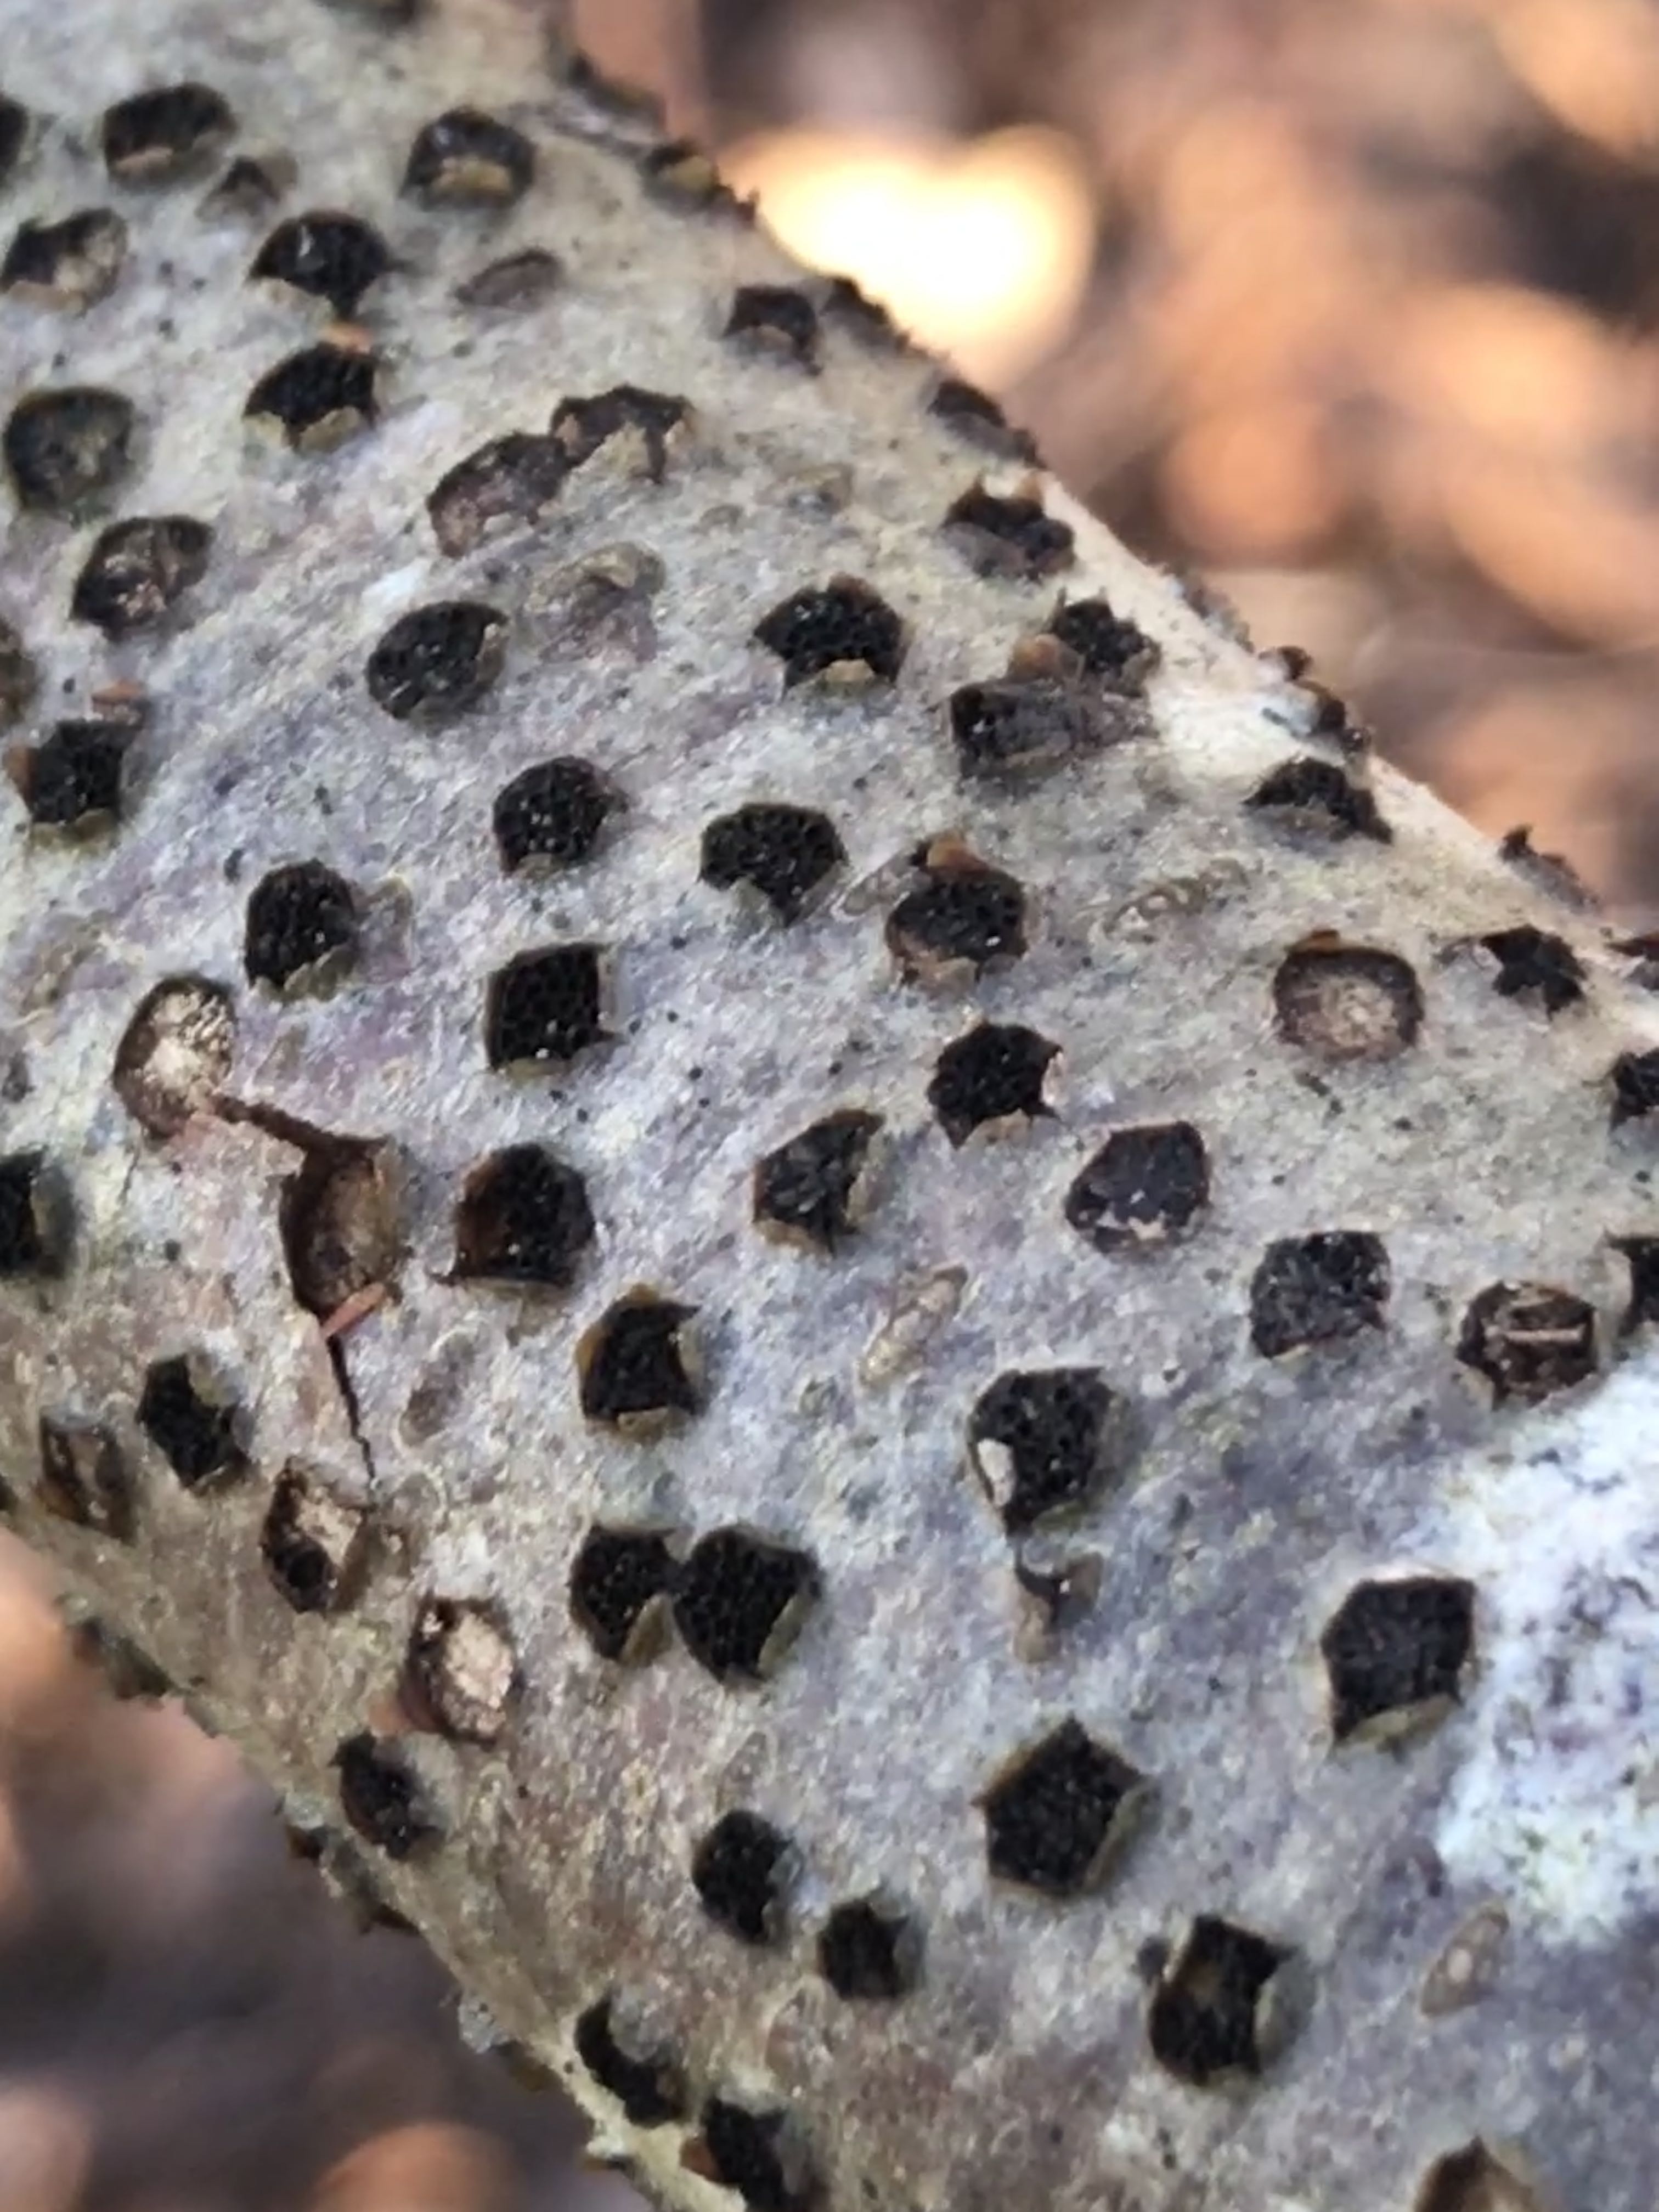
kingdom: Fungi
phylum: Ascomycota
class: Sordariomycetes
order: Xylariales
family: Diatrypaceae
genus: Diatrype
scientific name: Diatrype disciformis
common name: kant-kulskorpe
